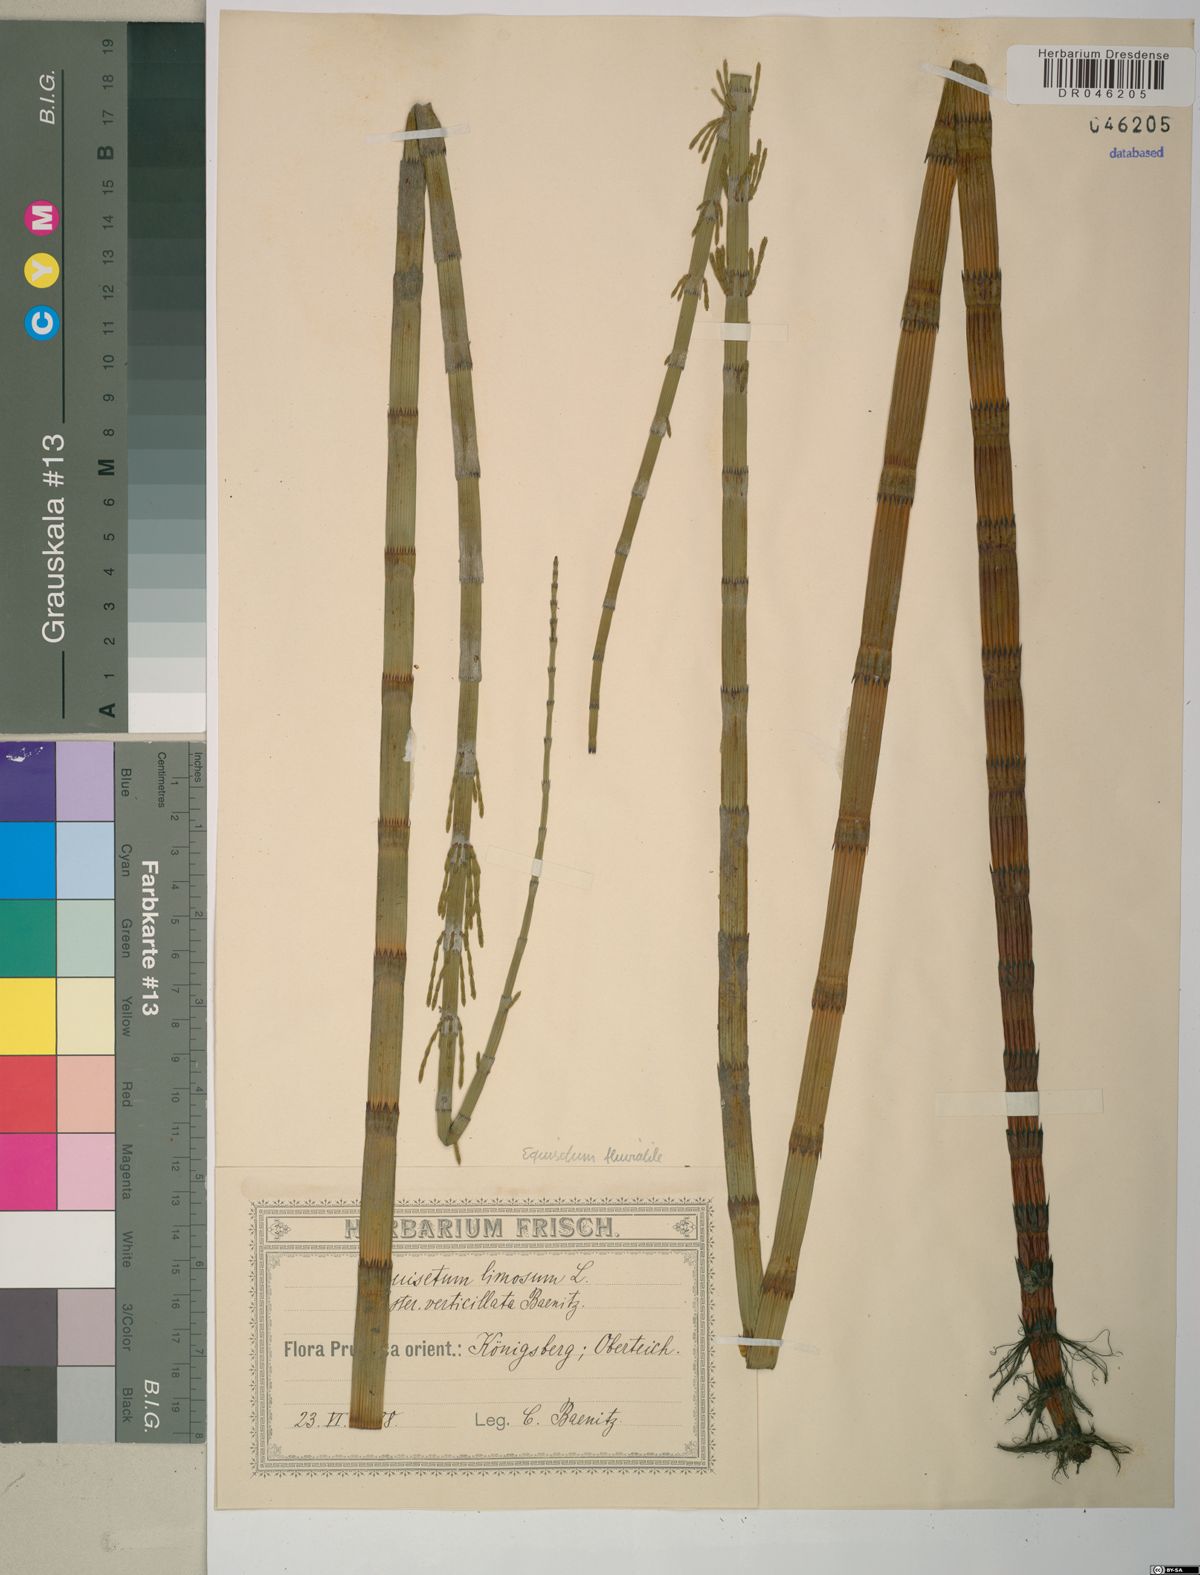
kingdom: Plantae
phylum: Tracheophyta
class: Polypodiopsida
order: Equisetales
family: Equisetaceae
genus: Equisetum
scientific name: Equisetum fluviatile
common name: Water horsetail
